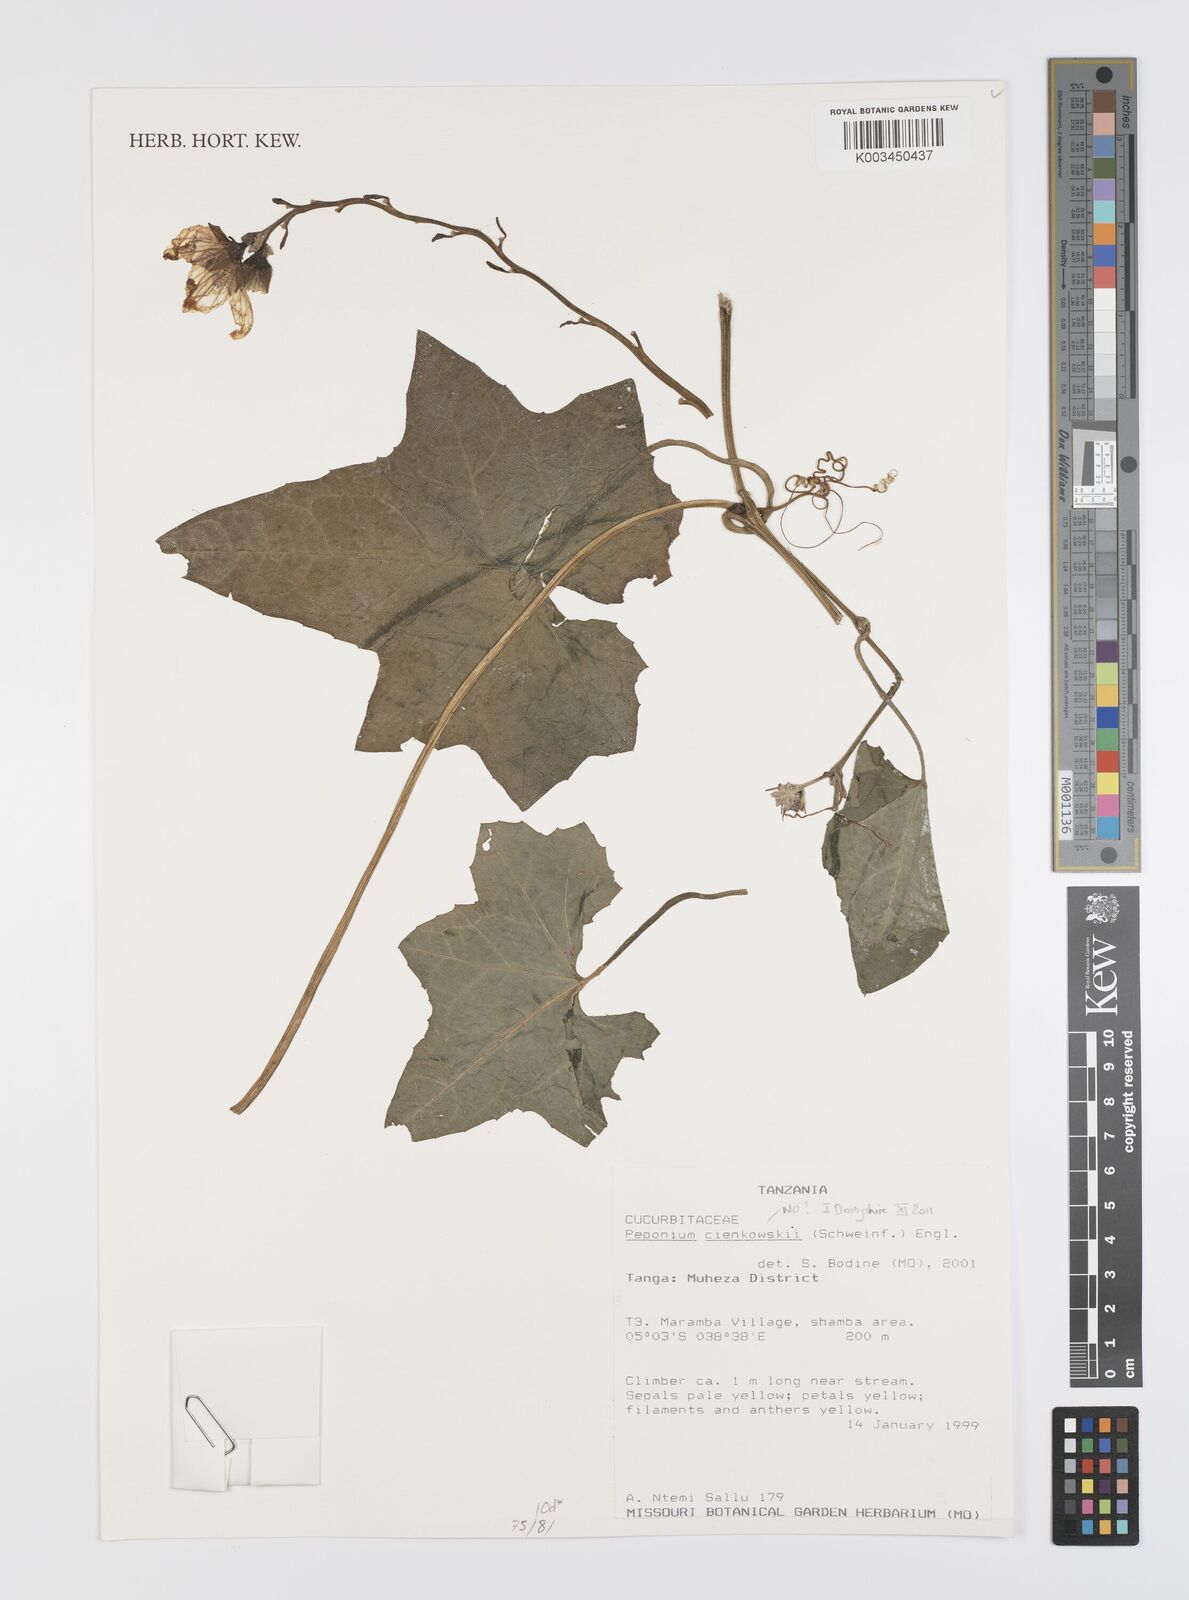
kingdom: Plantae
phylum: Tracheophyta
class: Magnoliopsida
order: Cucurbitales
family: Cucurbitaceae
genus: Peponium
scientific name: Peponium
